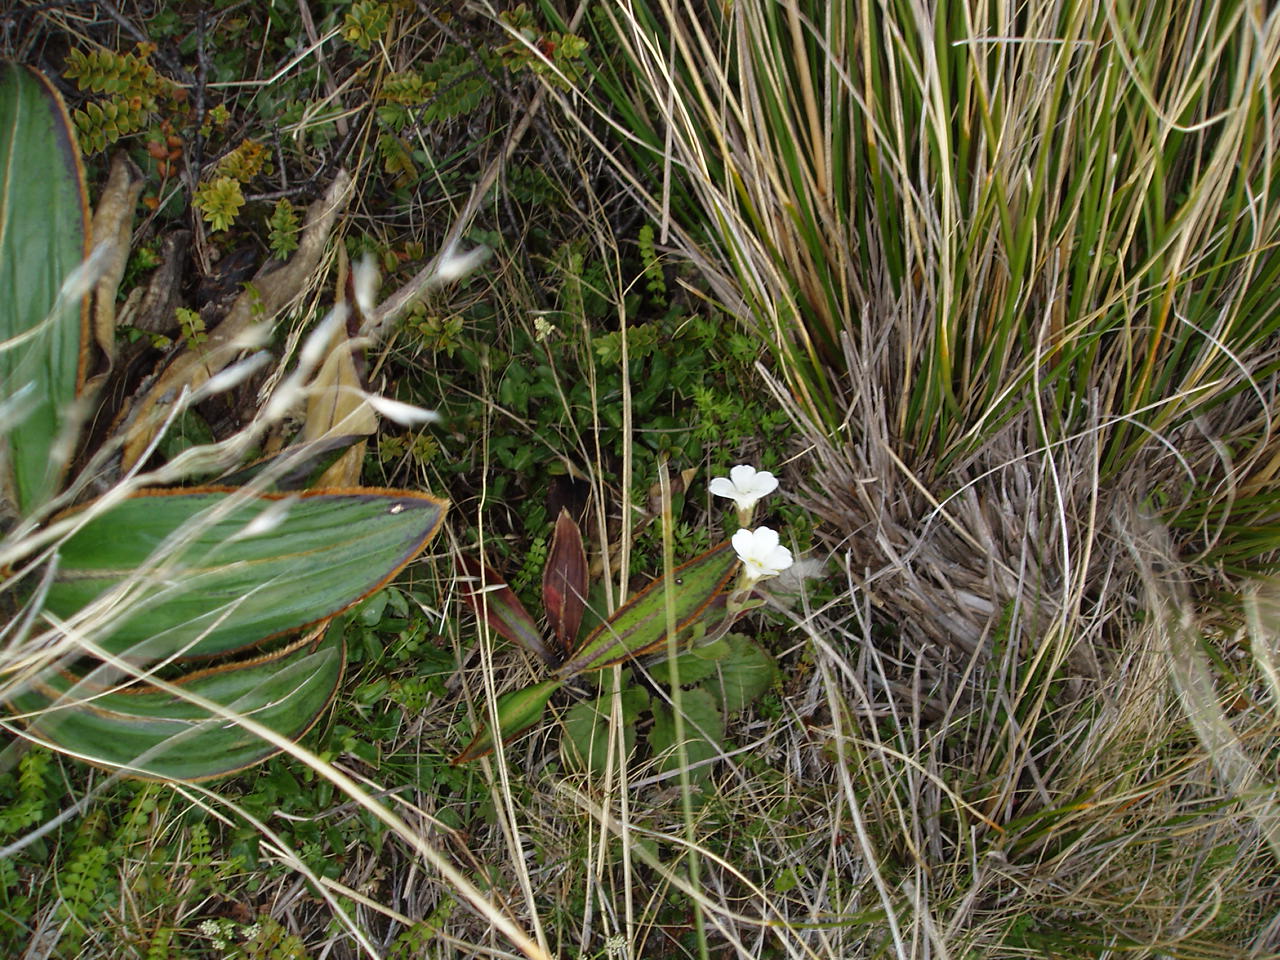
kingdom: Plantae
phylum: Tracheophyta
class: Magnoliopsida
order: Lamiales
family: Plantaginaceae
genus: Ourisia
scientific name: Ourisia macrophylla
